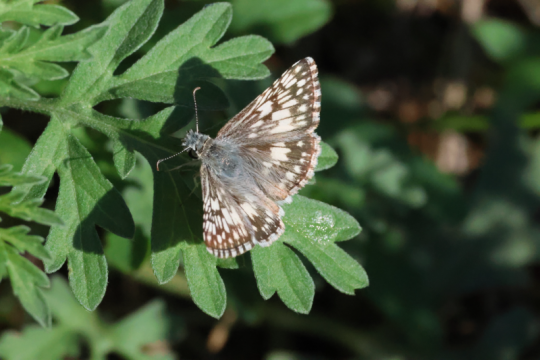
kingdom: Animalia
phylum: Arthropoda
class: Insecta
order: Lepidoptera
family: Hesperiidae
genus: Pyrgus
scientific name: Pyrgus communis
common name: Common Checkered-Skipper
